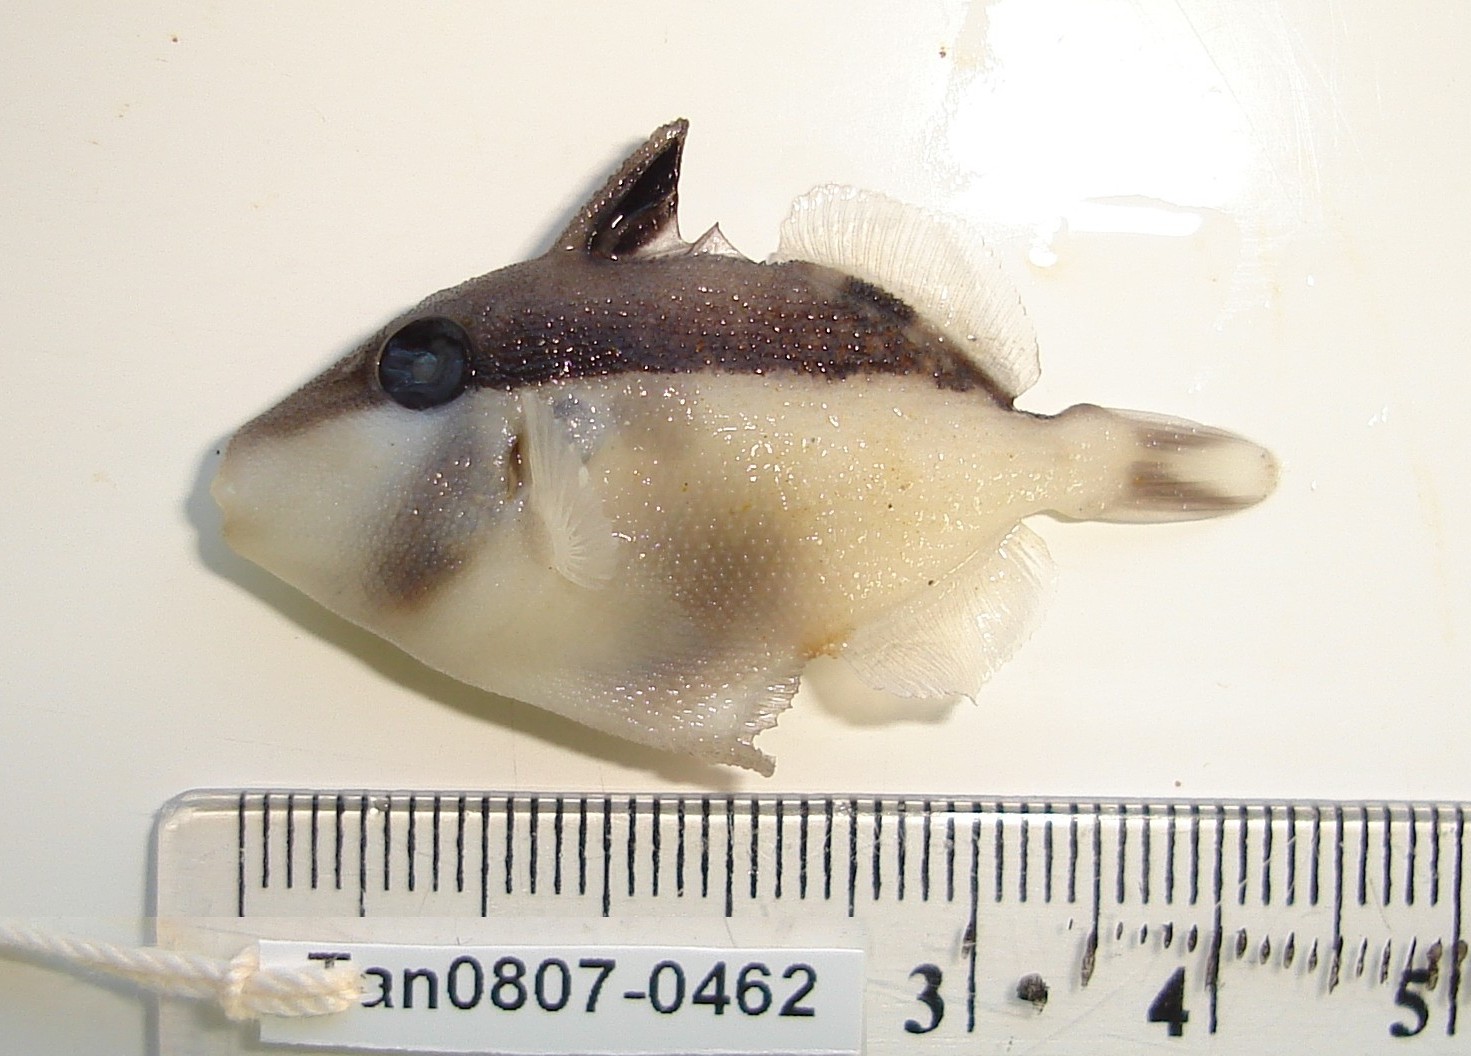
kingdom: Animalia
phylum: Chordata
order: Tetraodontiformes
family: Balistidae
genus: Sufflamen
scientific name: Sufflamen chrysopterum
